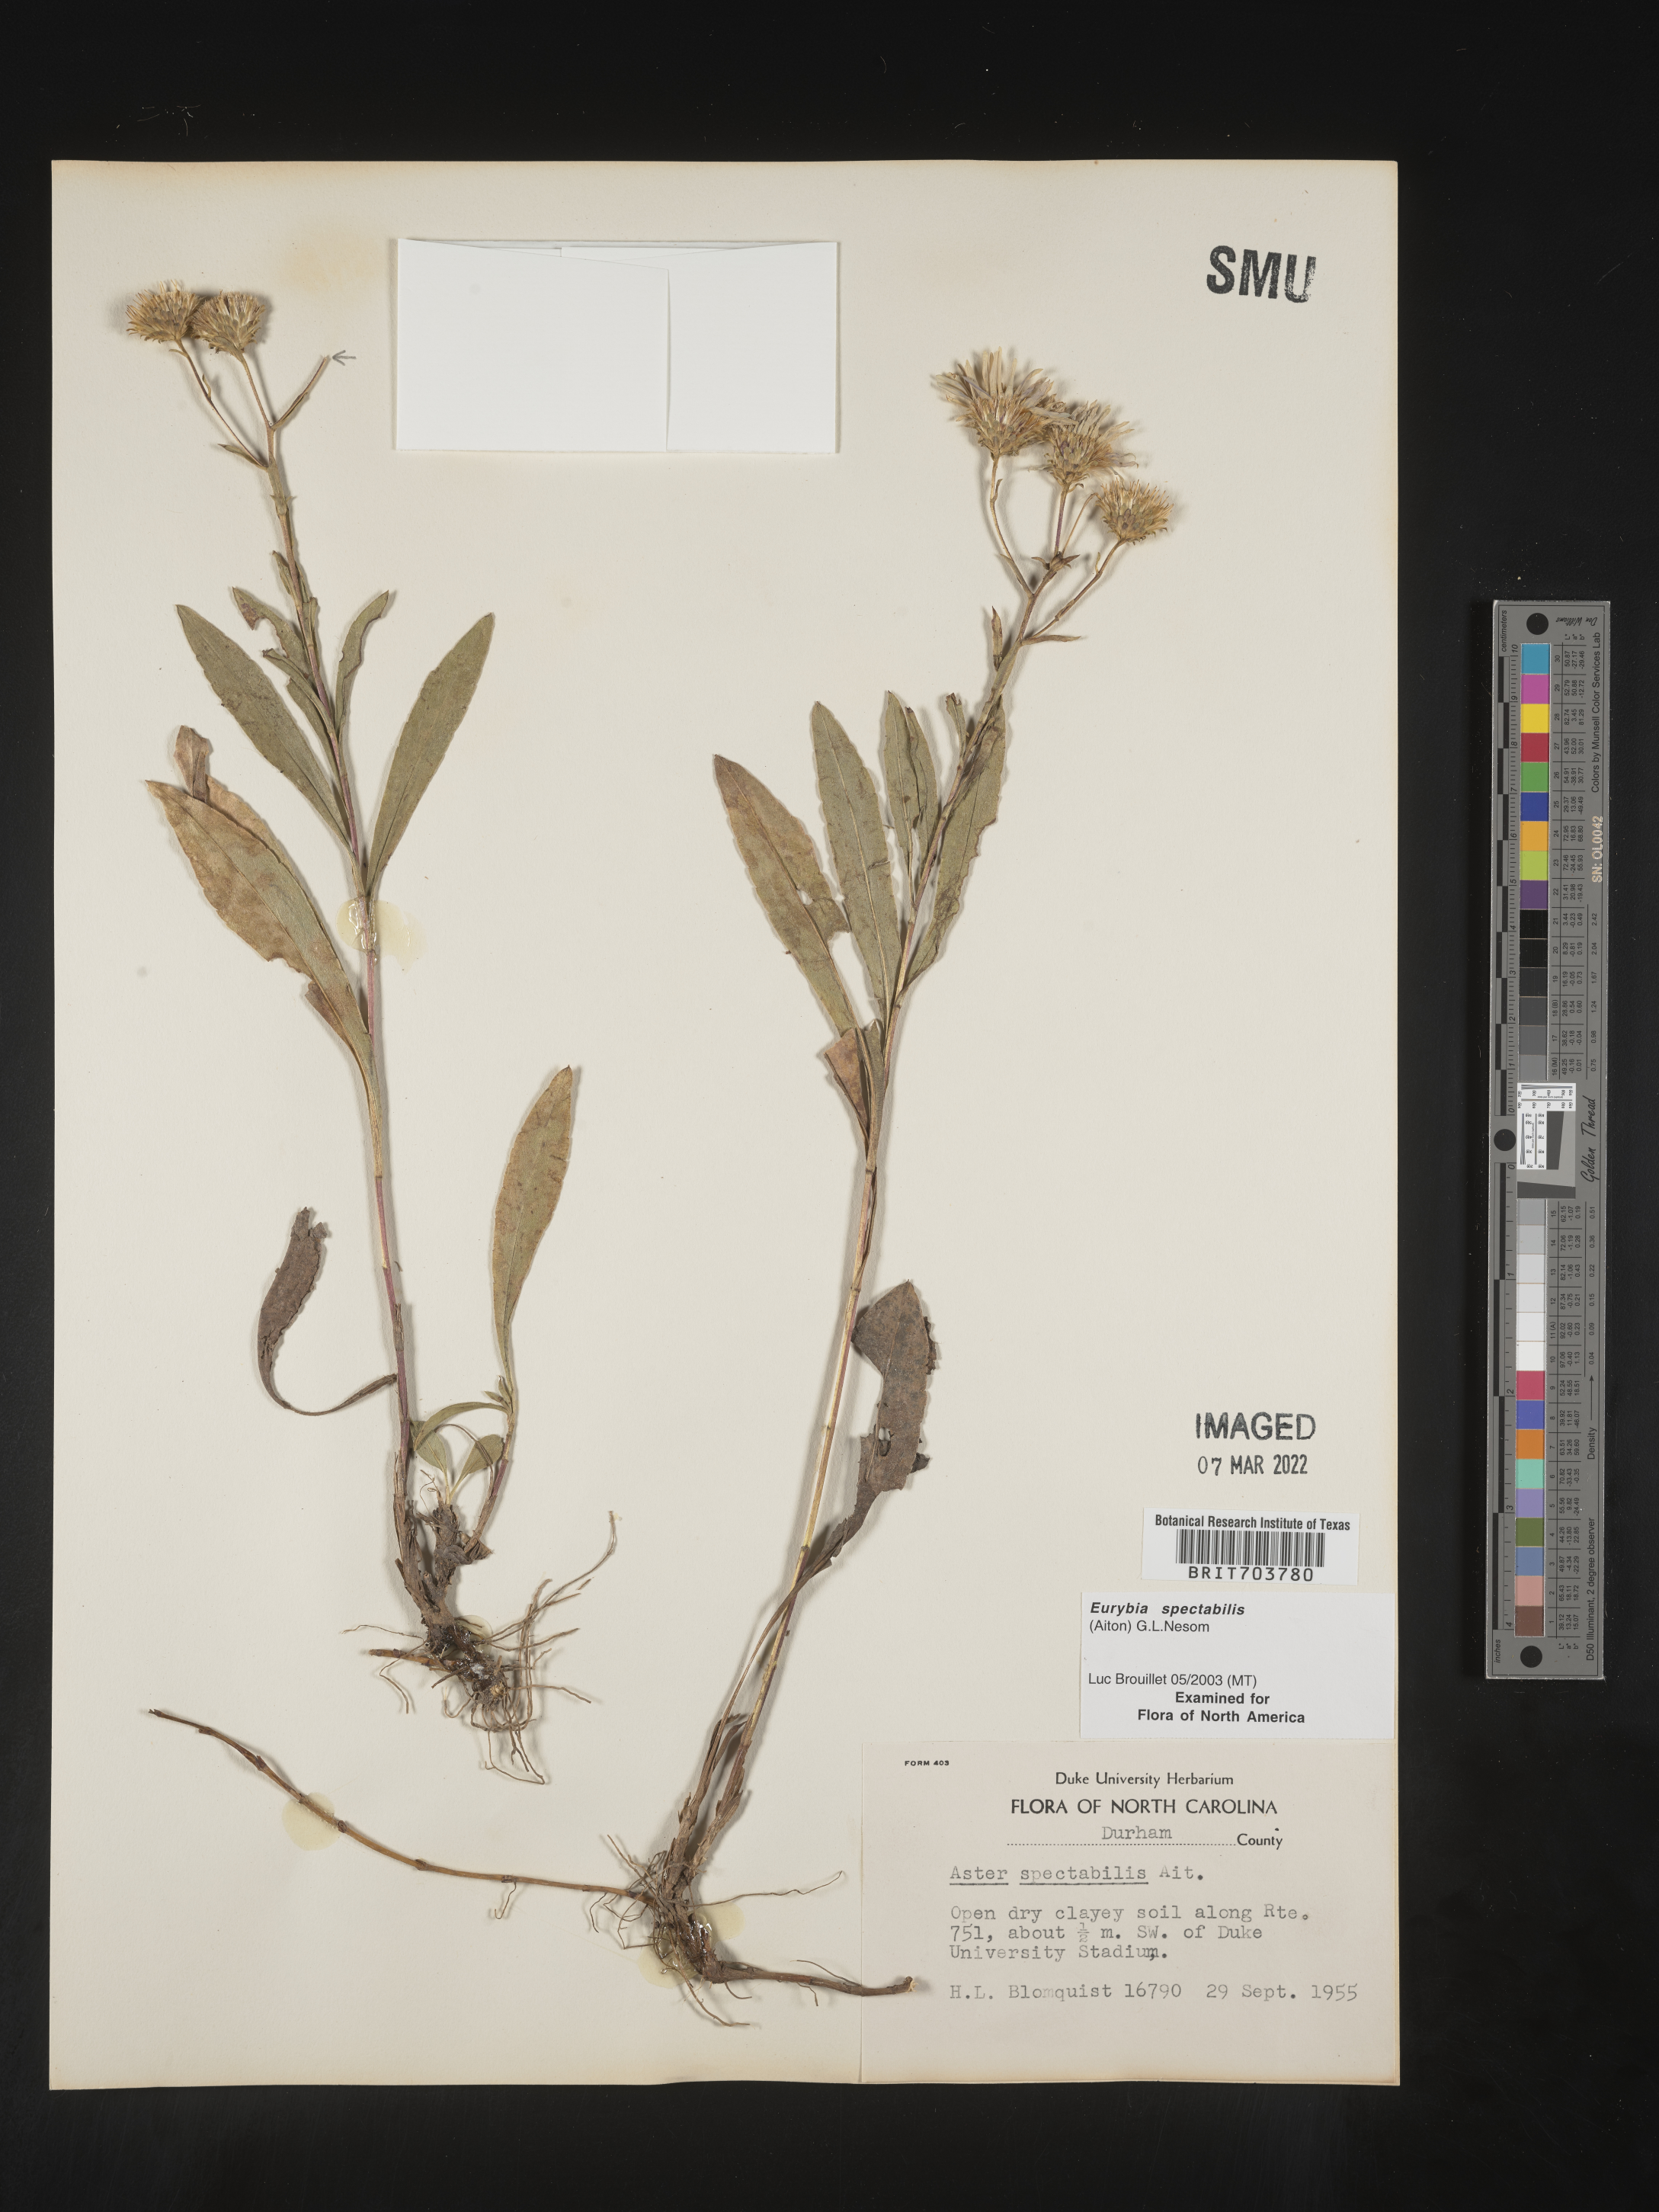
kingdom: Plantae
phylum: Tracheophyta
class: Magnoliopsida
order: Asterales
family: Asteraceae
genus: Eurybia
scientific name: Eurybia spectabilis
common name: Low showy aster
